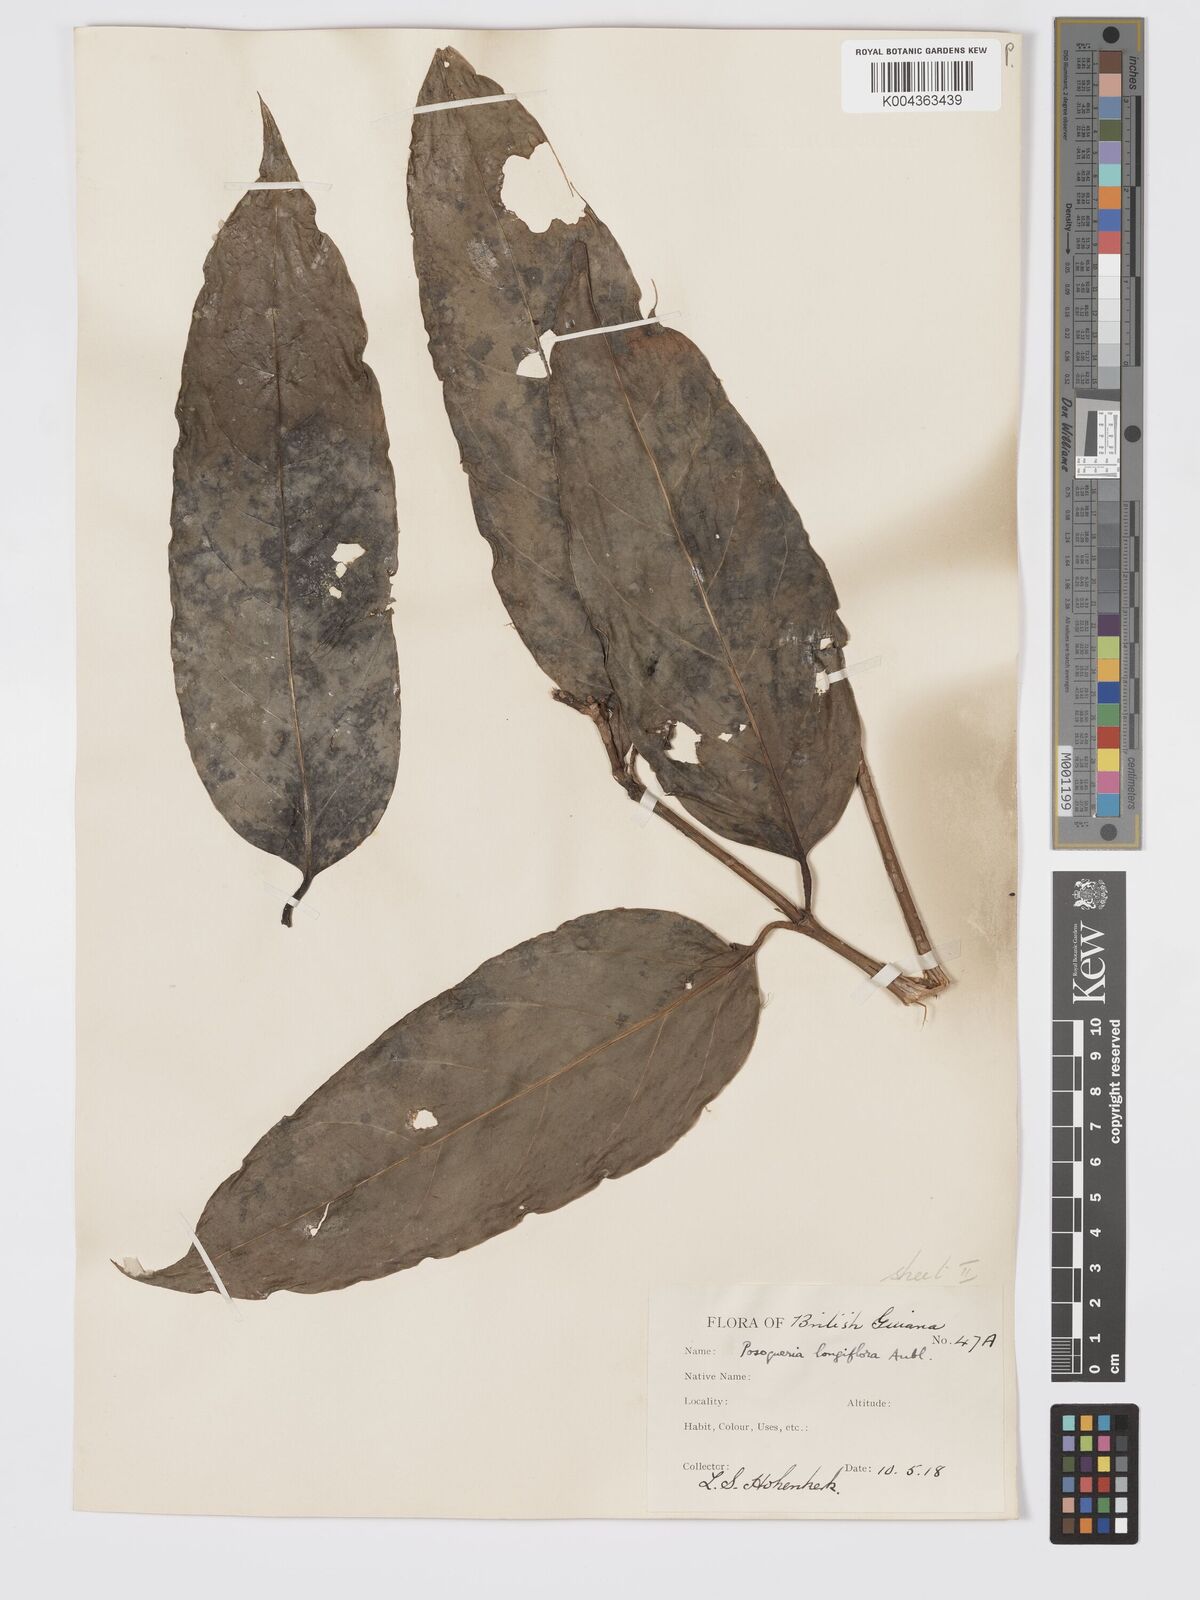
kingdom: Plantae
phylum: Tracheophyta
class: Magnoliopsida
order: Gentianales
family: Rubiaceae
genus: Posoqueria
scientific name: Posoqueria
